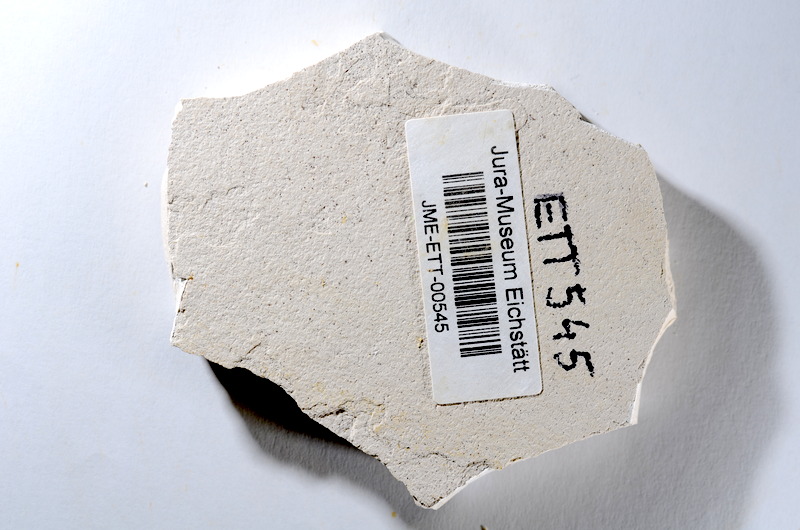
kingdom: Animalia
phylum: Chordata
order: Salmoniformes
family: Orthogonikleithridae
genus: Orthogonikleithrus
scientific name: Orthogonikleithrus hoelli
